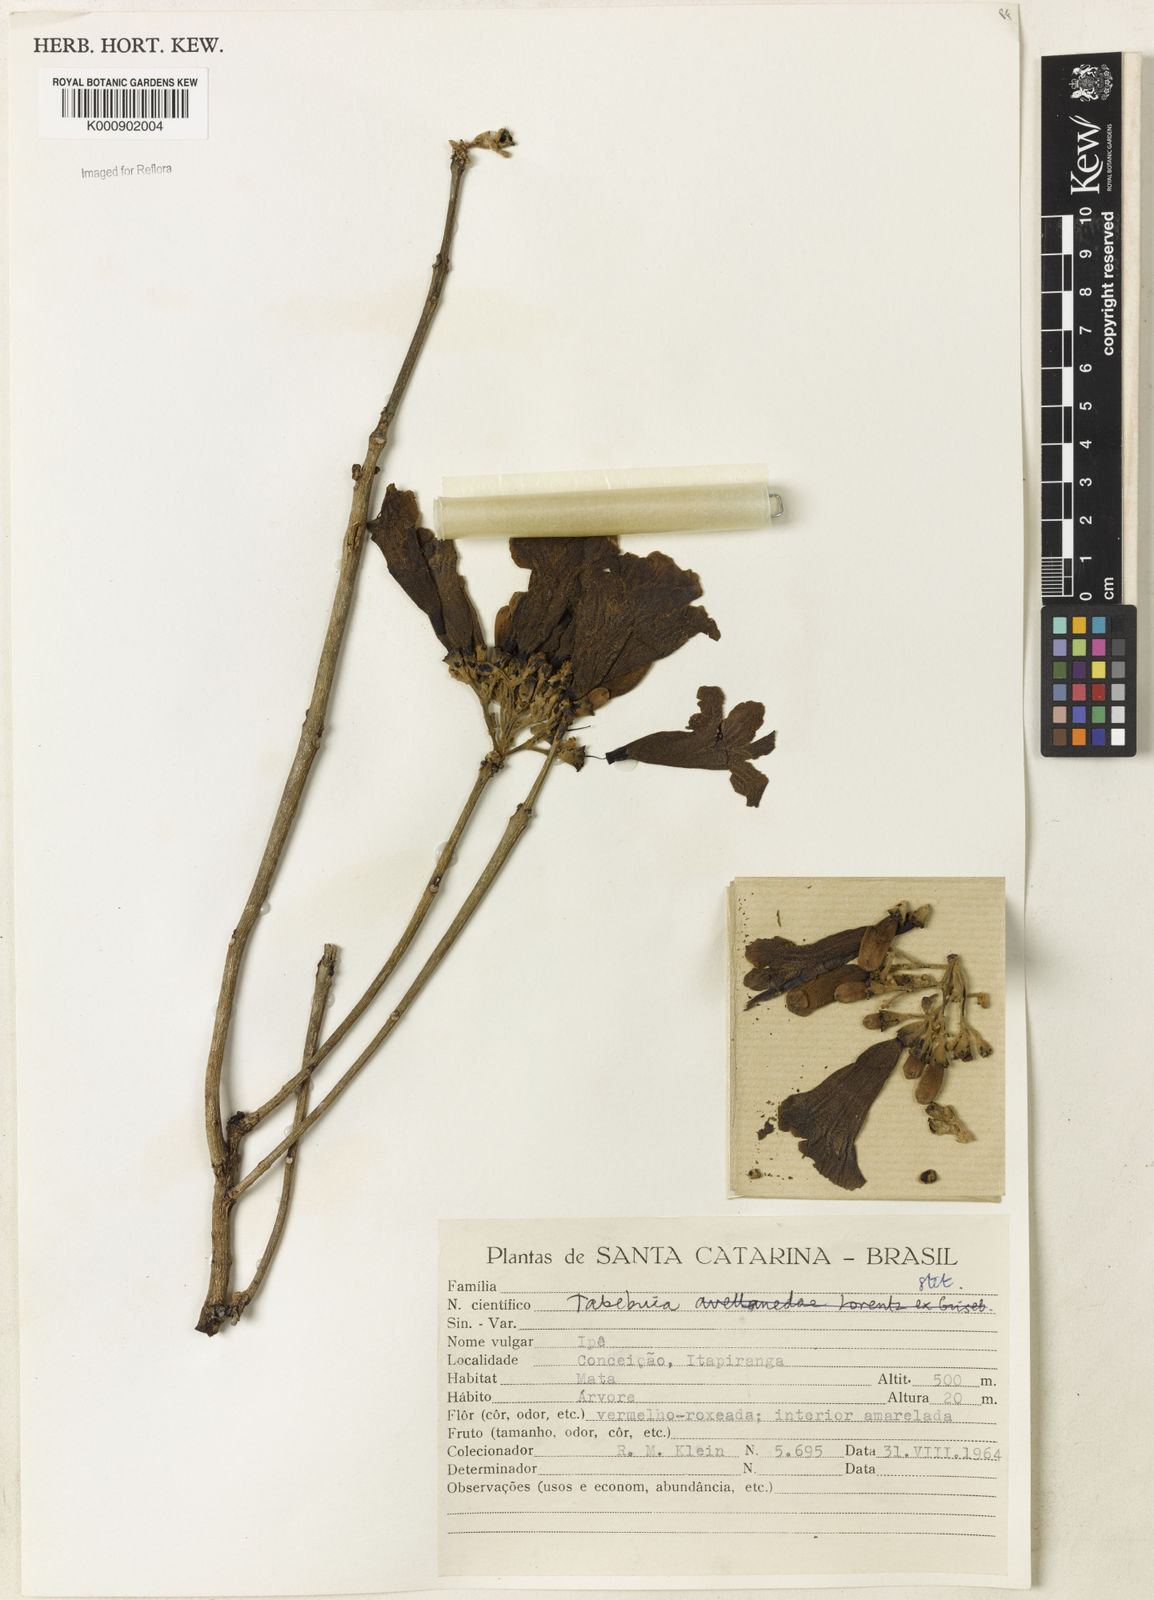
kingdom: Plantae
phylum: Tracheophyta
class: Magnoliopsida
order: Lamiales
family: Bignoniaceae
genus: Handroanthus
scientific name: Handroanthus heptaphyllus
